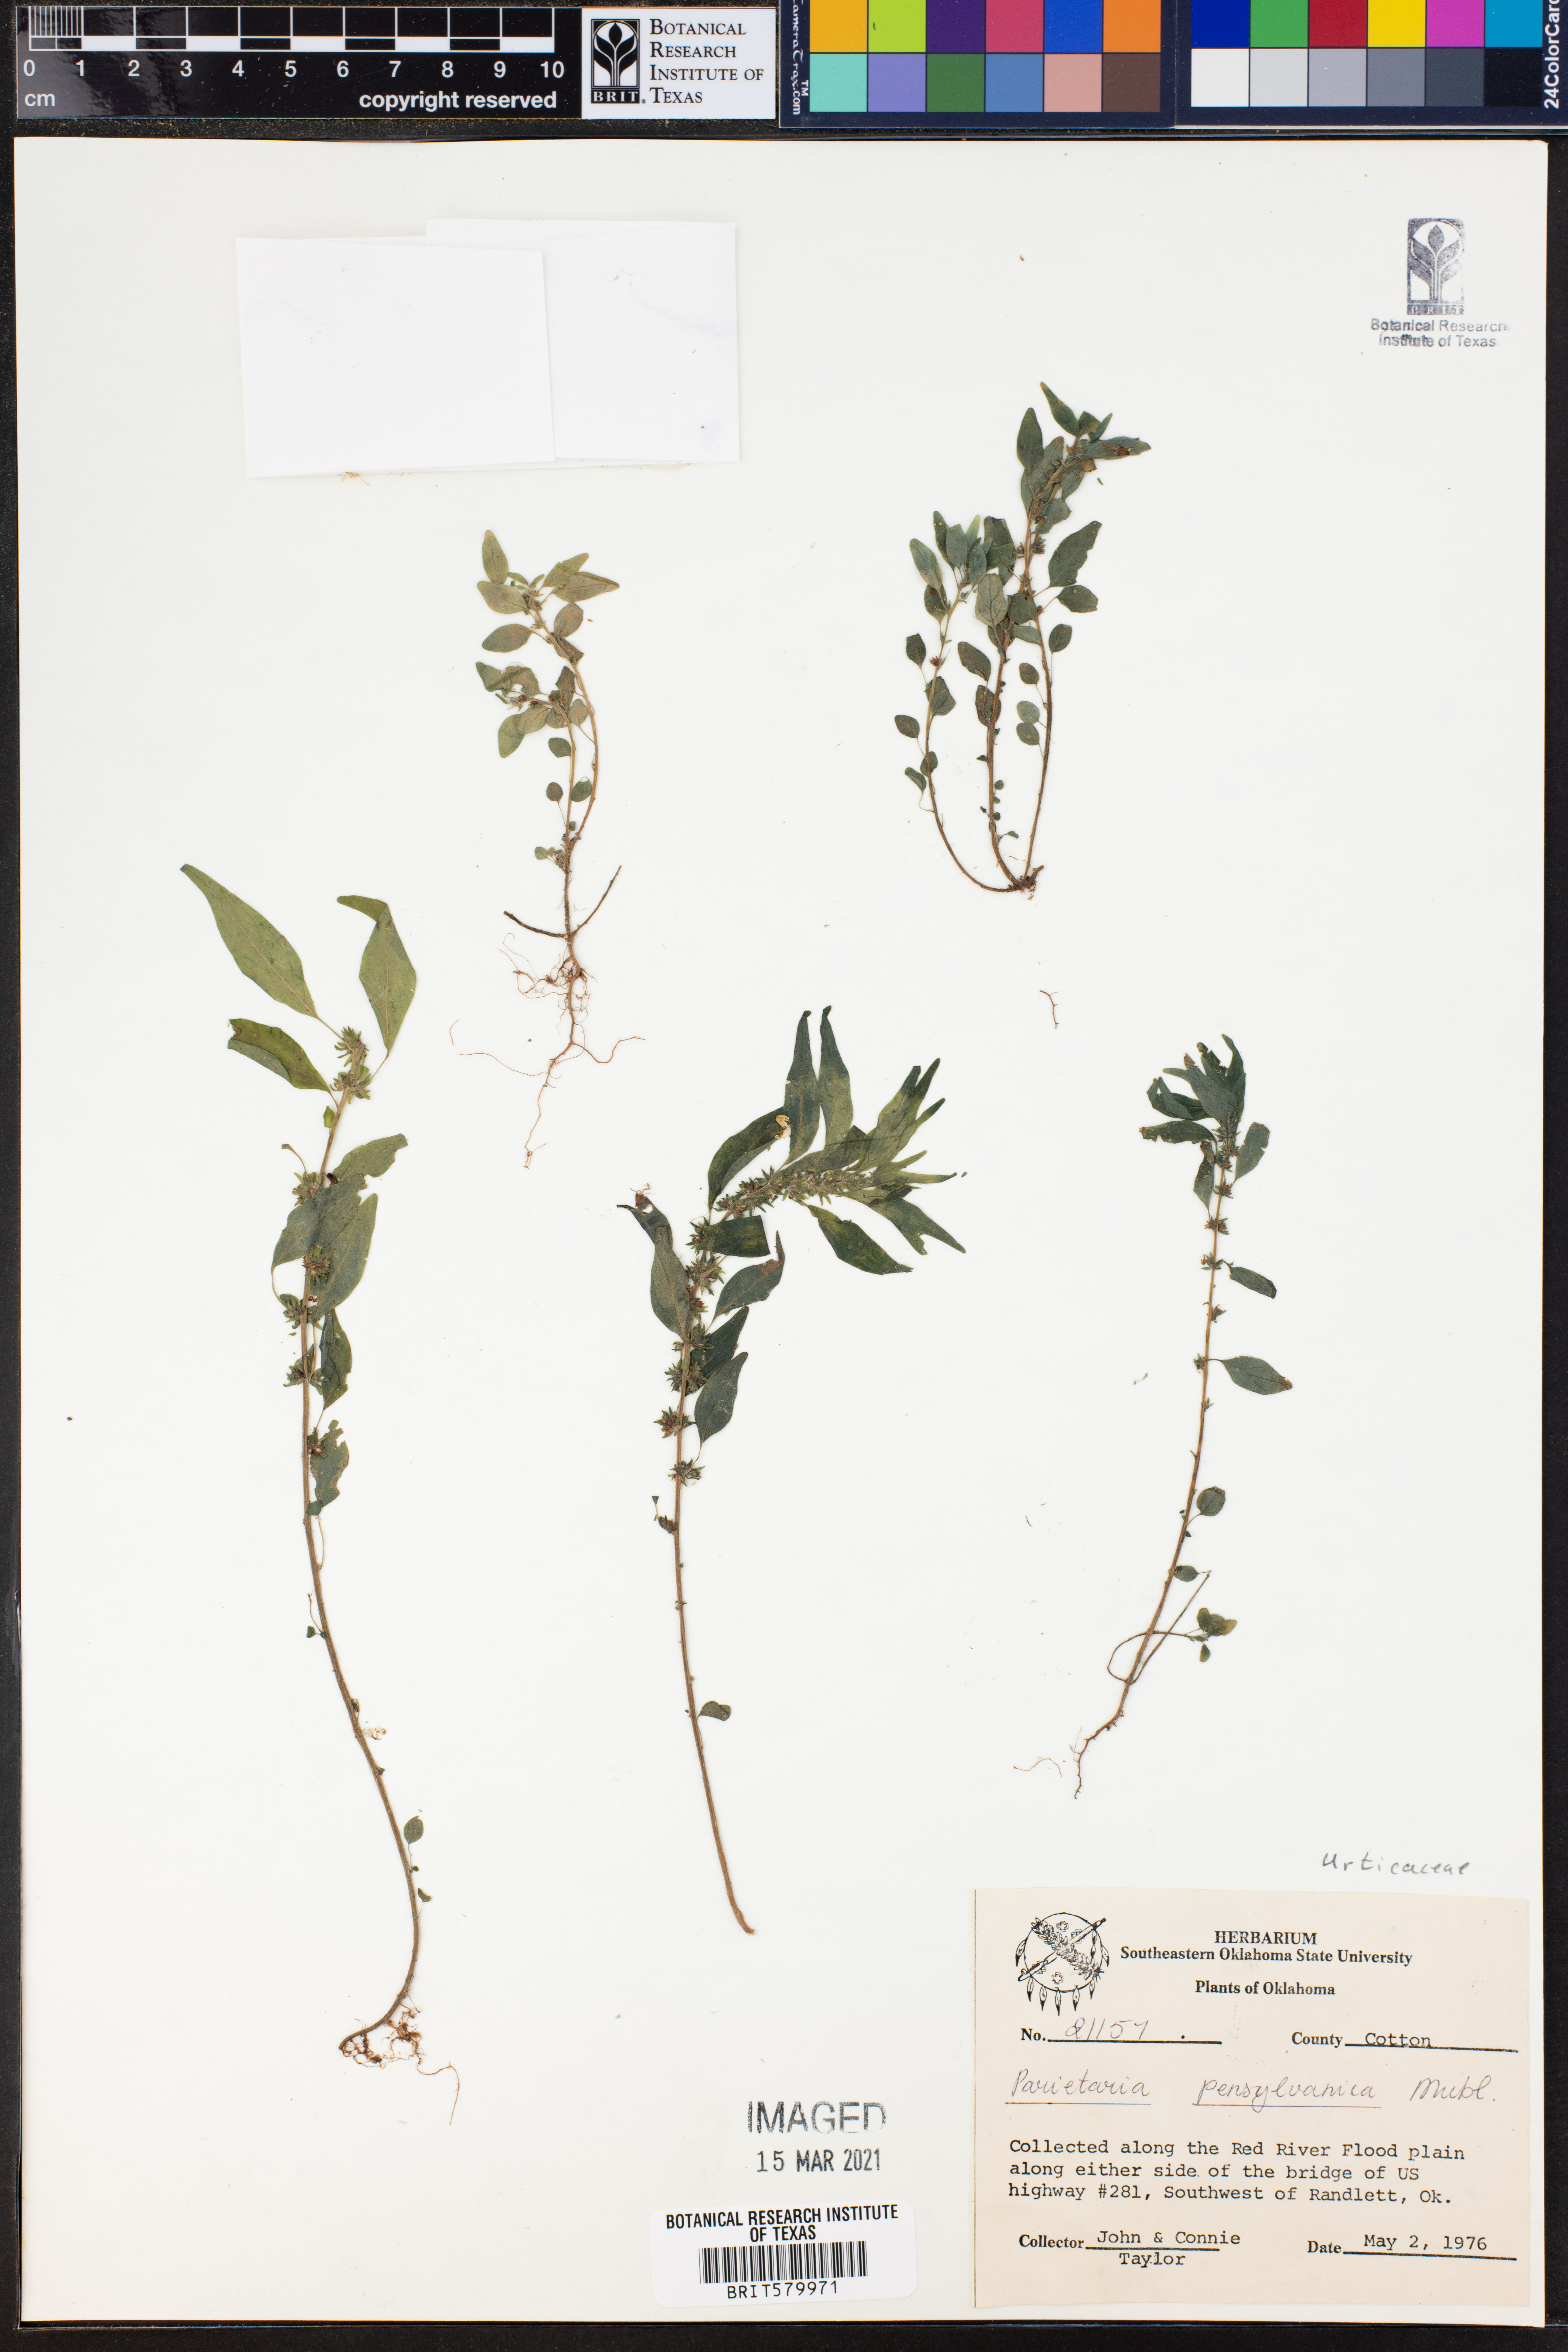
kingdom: Plantae
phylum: Tracheophyta
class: Magnoliopsida
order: Rosales
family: Urticaceae
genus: Parietaria
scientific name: Parietaria pensylvanica
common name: Pennsylvania pellitory
